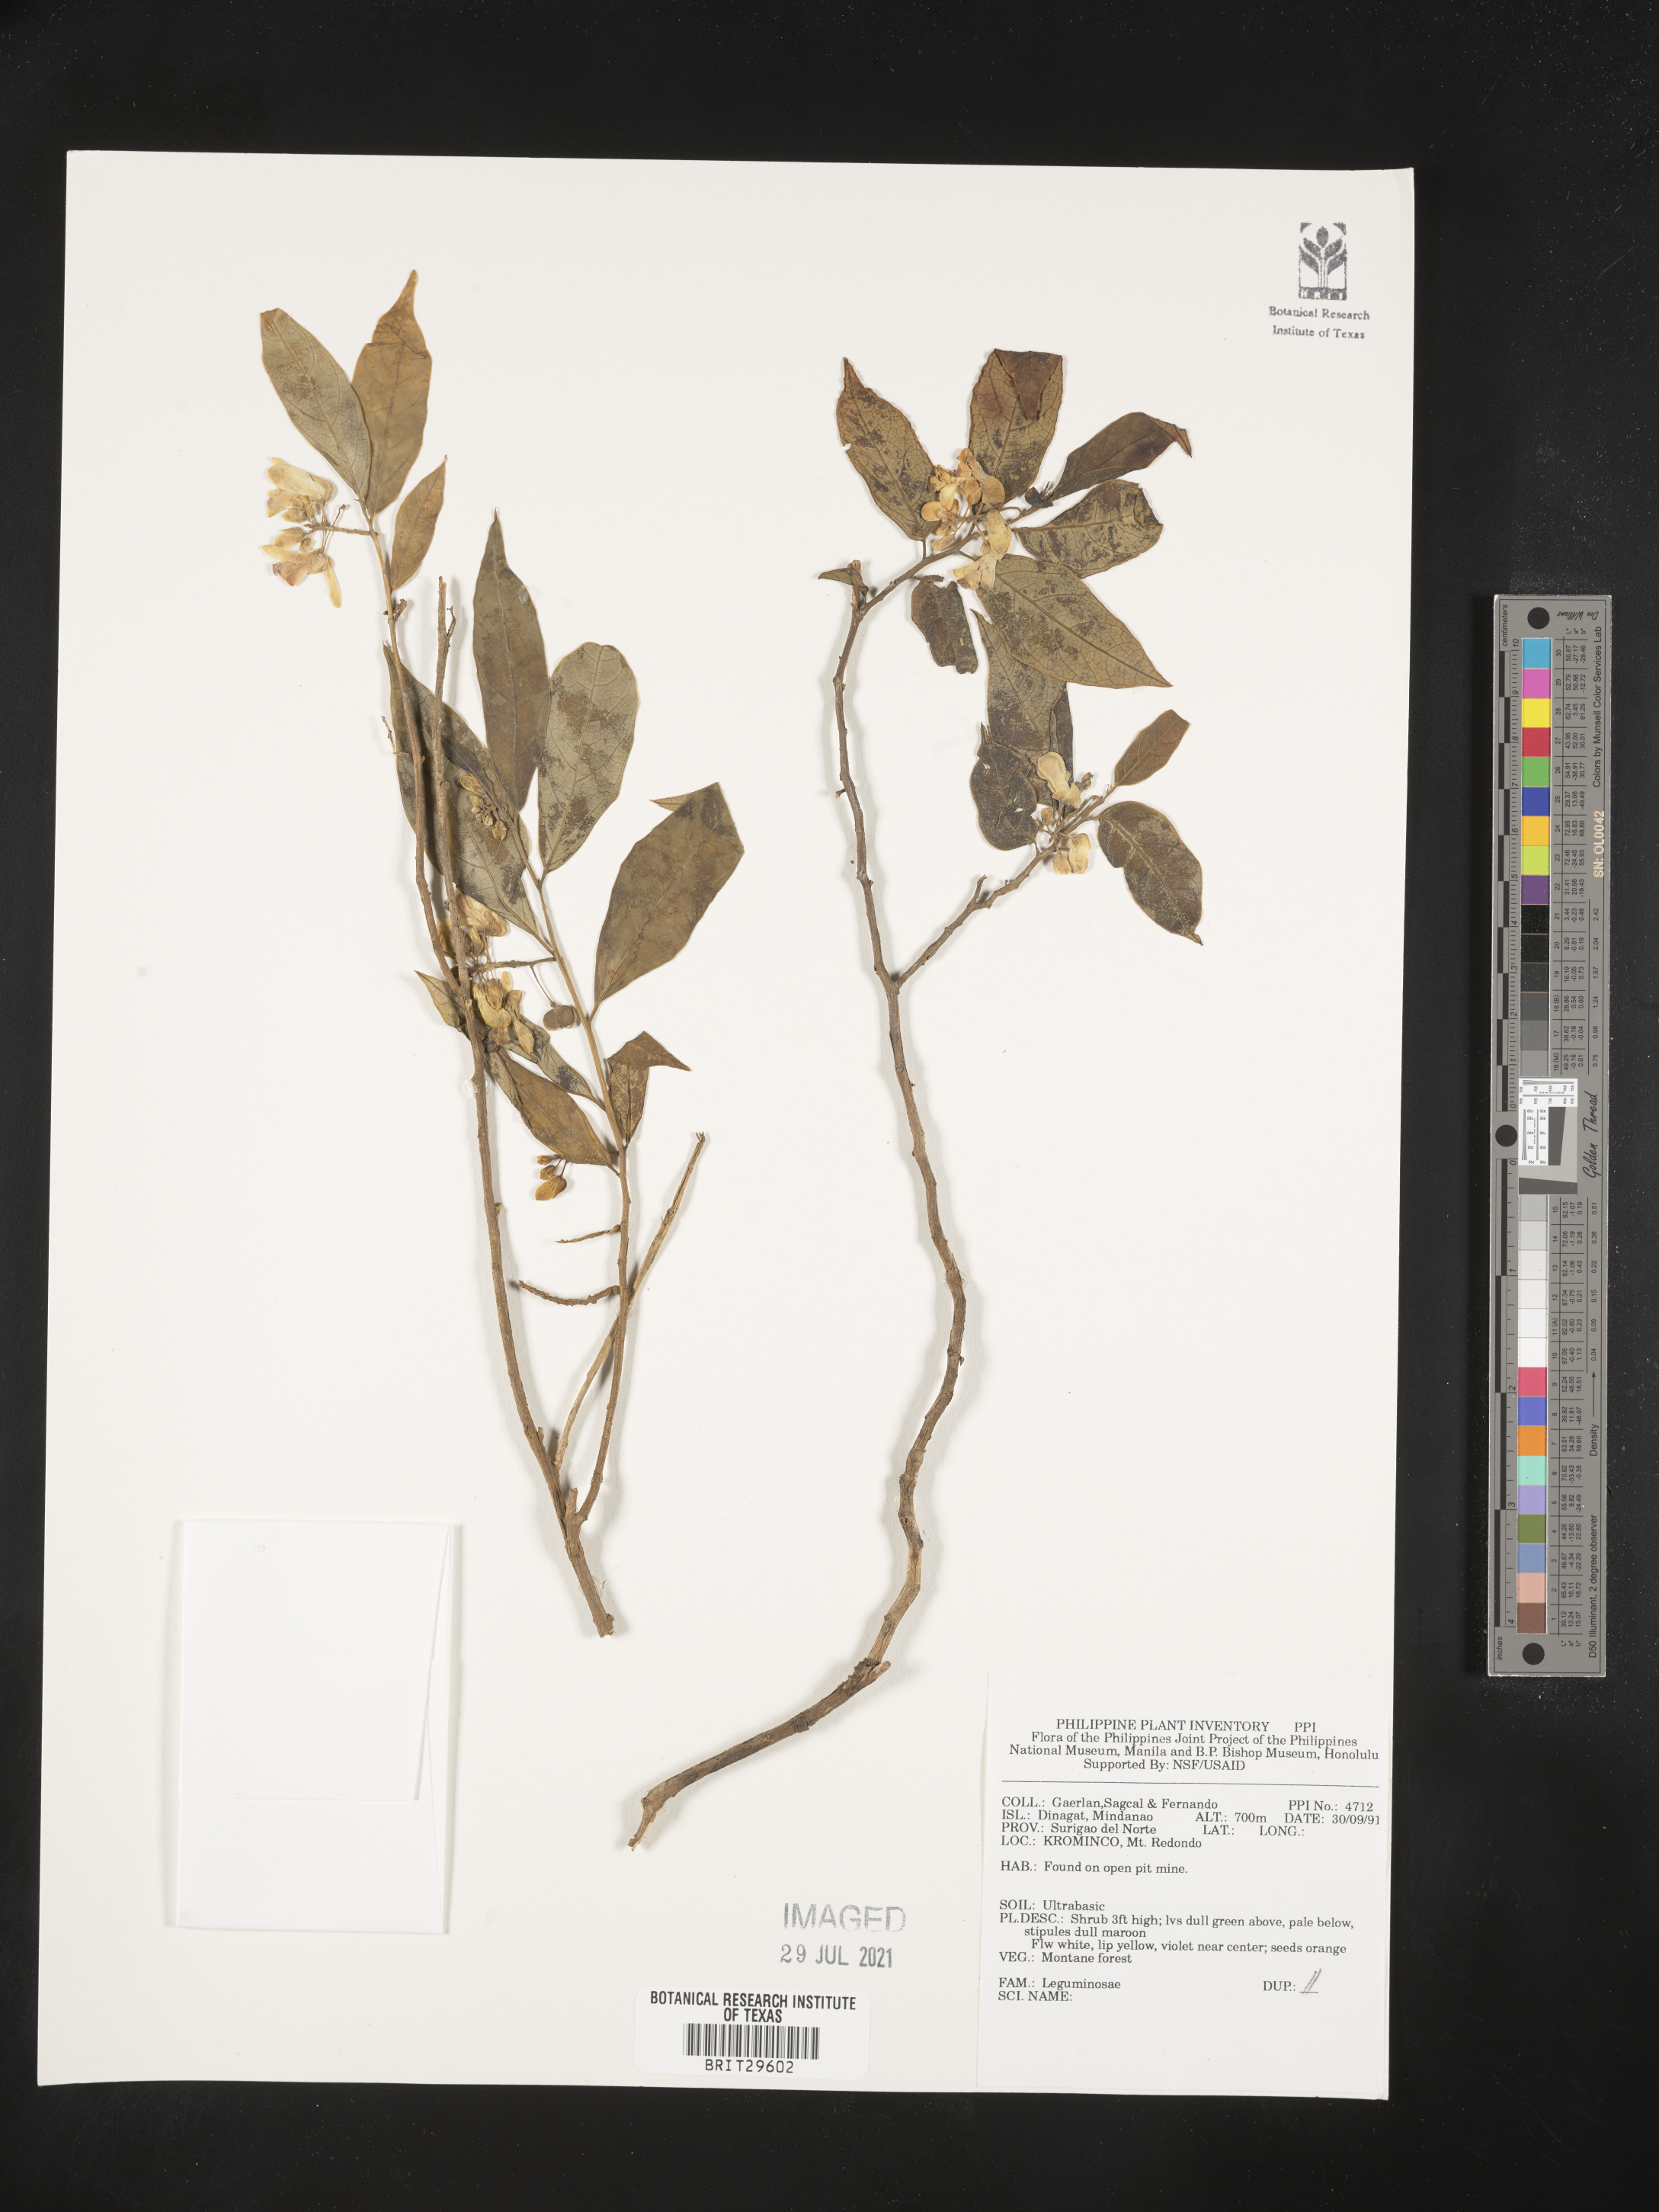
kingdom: Plantae
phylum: Tracheophyta
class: Magnoliopsida
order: Fabales
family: Fabaceae
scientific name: Fabaceae
